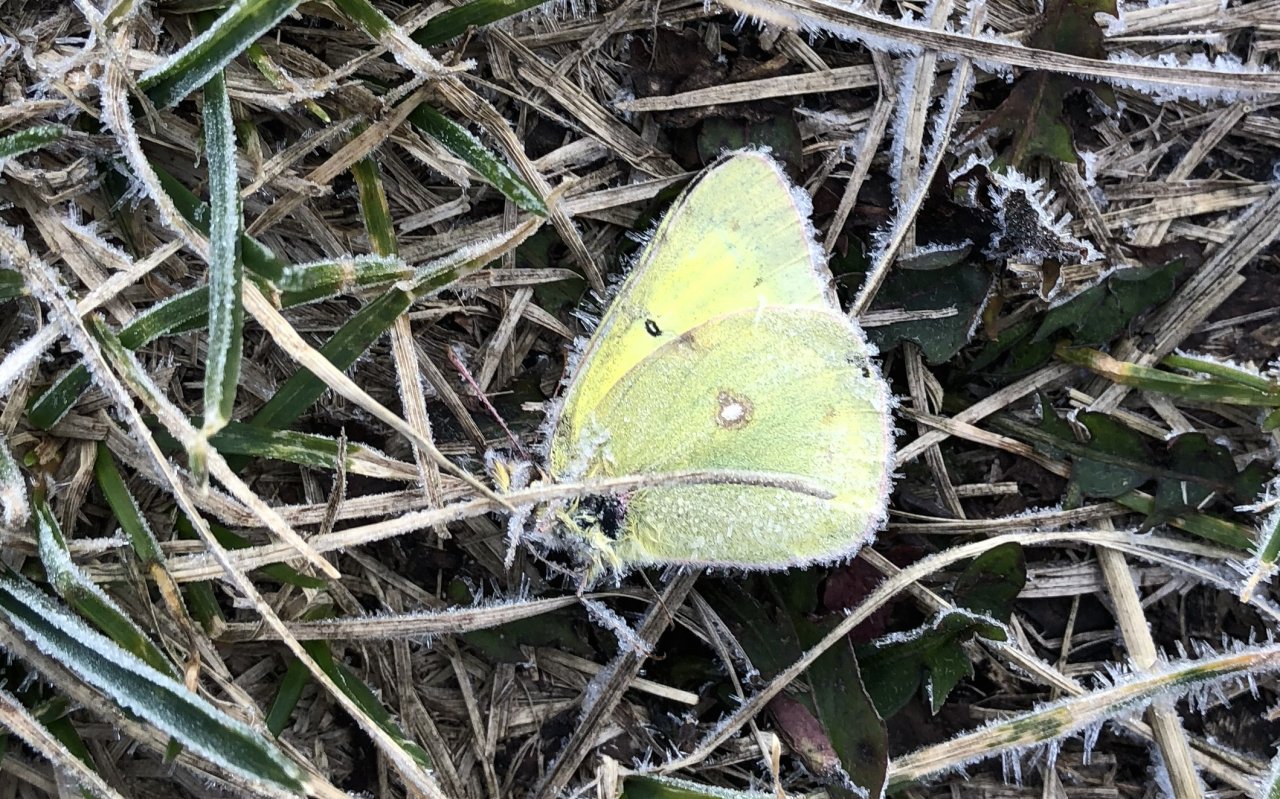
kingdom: Animalia
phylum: Arthropoda
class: Insecta
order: Lepidoptera
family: Pieridae
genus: Colias
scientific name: Colias philodice
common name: Clouded Sulphur
